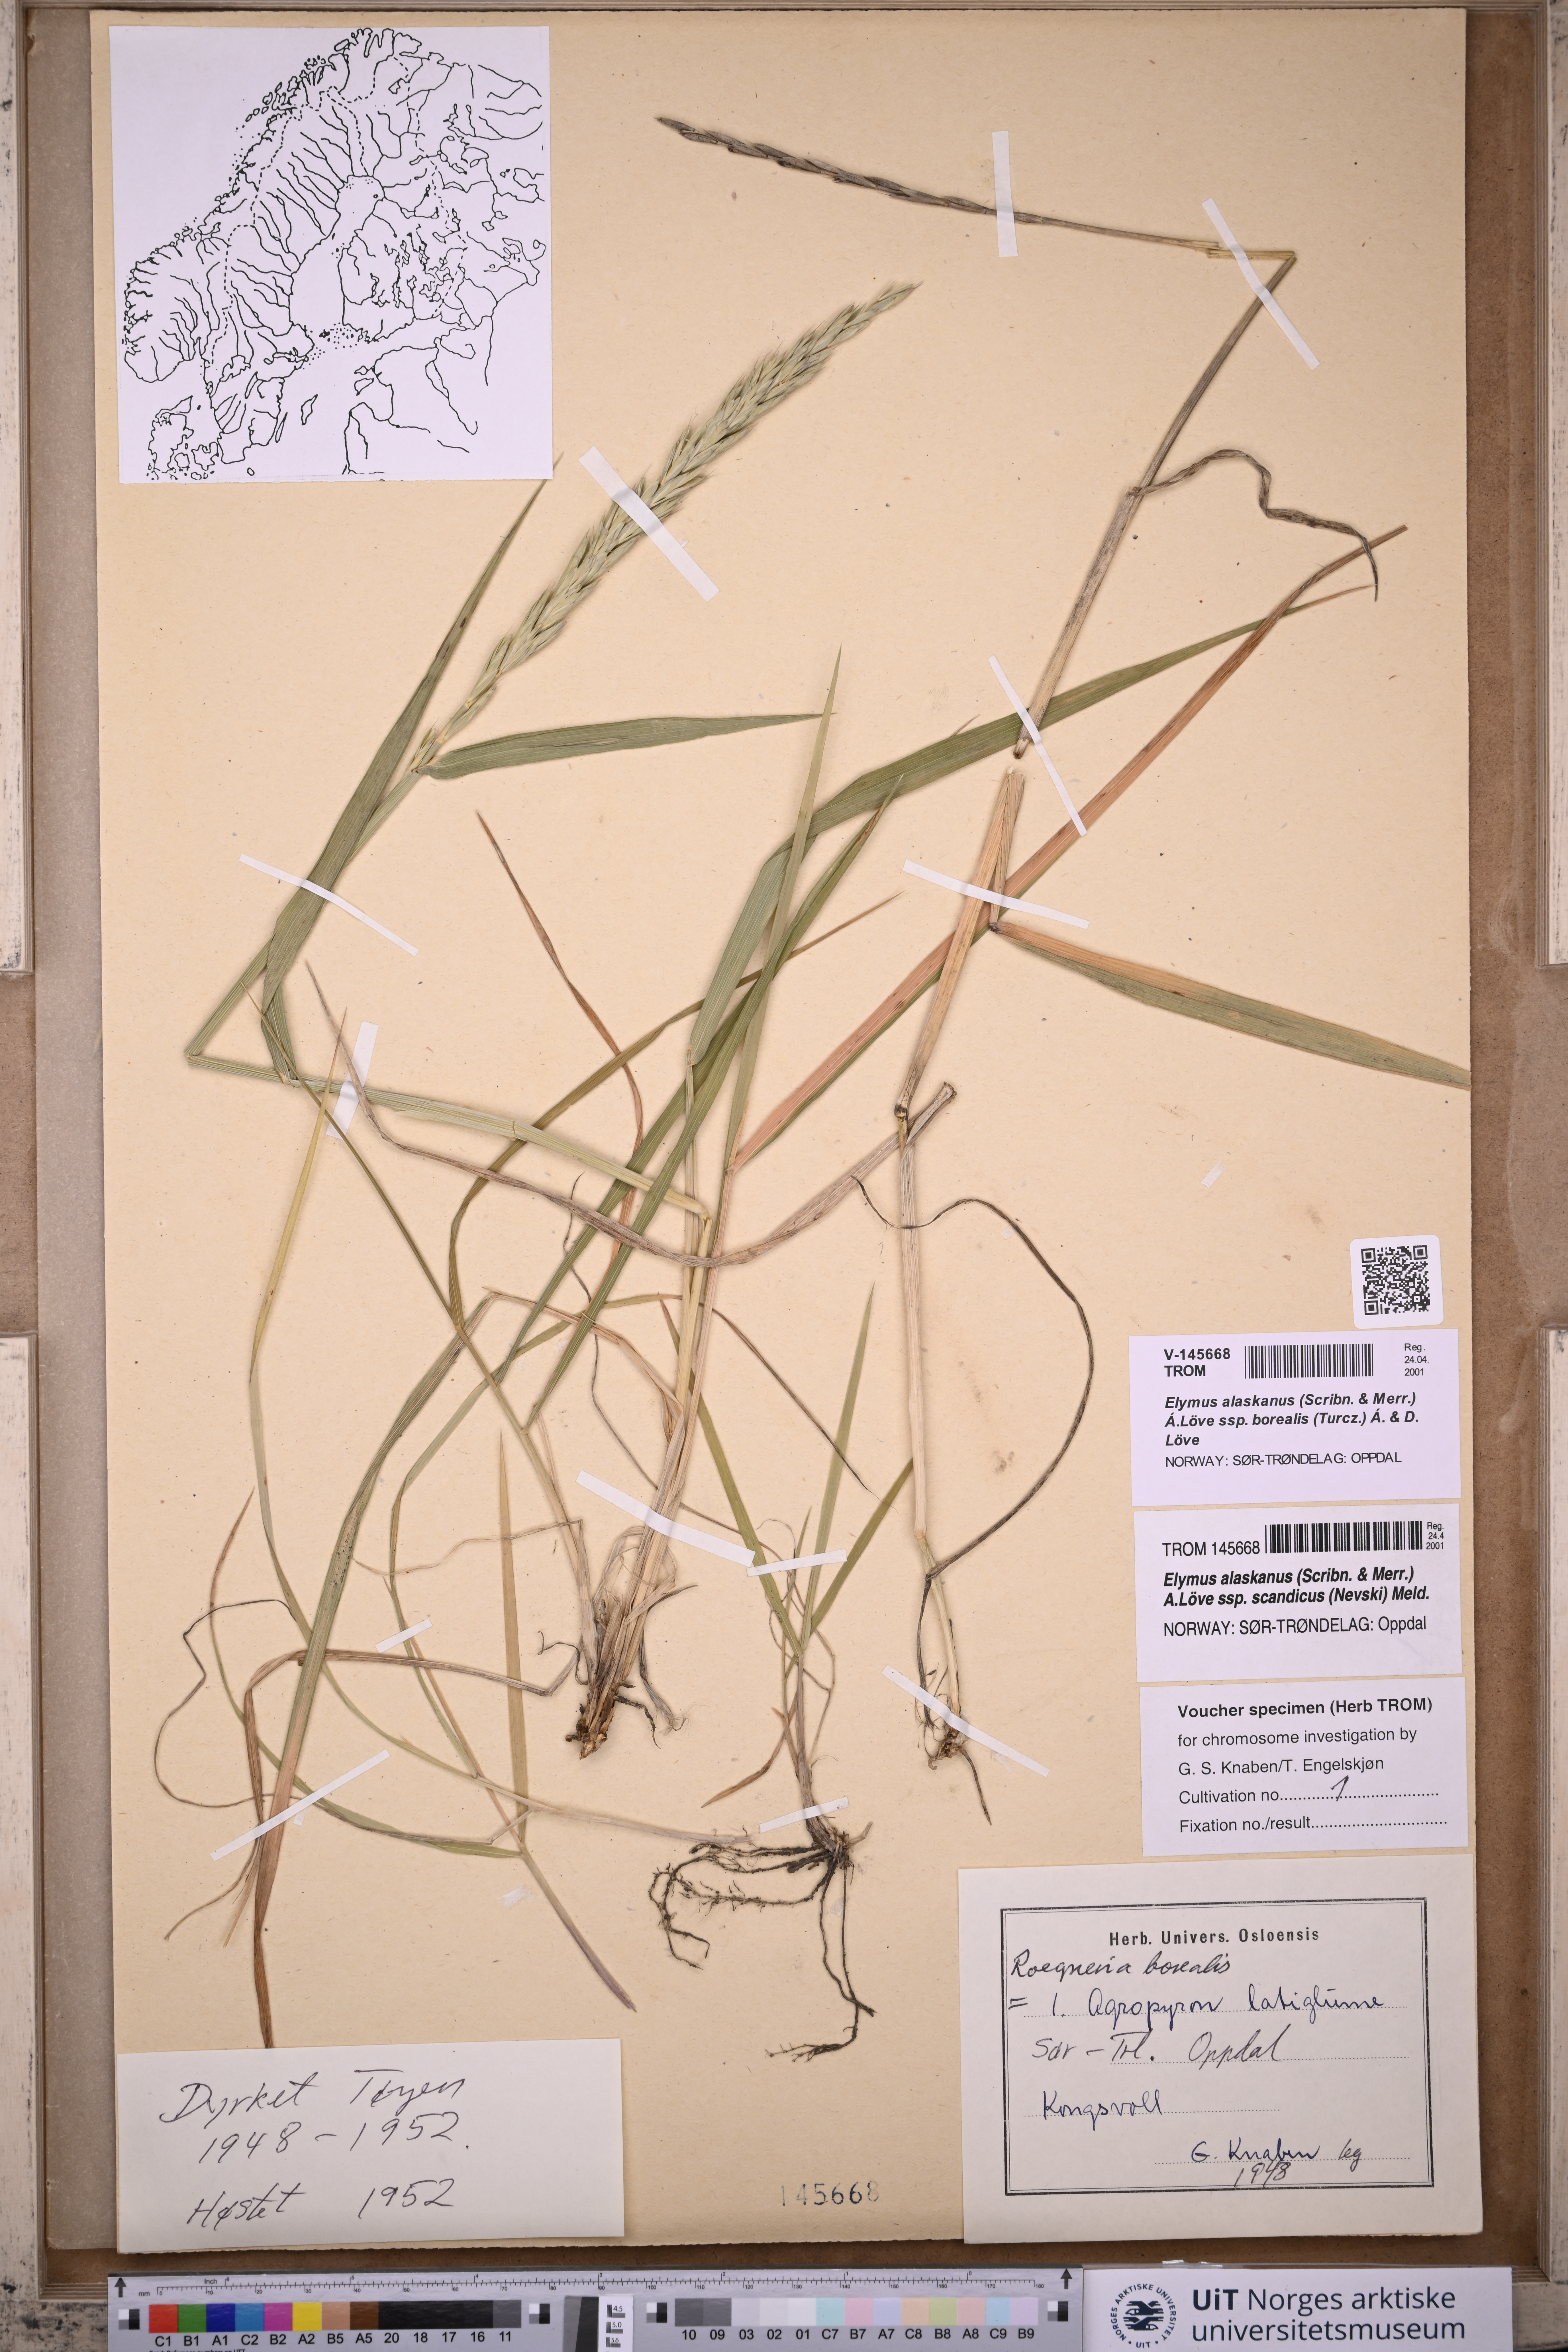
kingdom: Plantae
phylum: Tracheophyta
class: Liliopsida
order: Poales
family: Poaceae
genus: Elymus
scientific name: Elymus macrourus
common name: Northern wheatgrass
